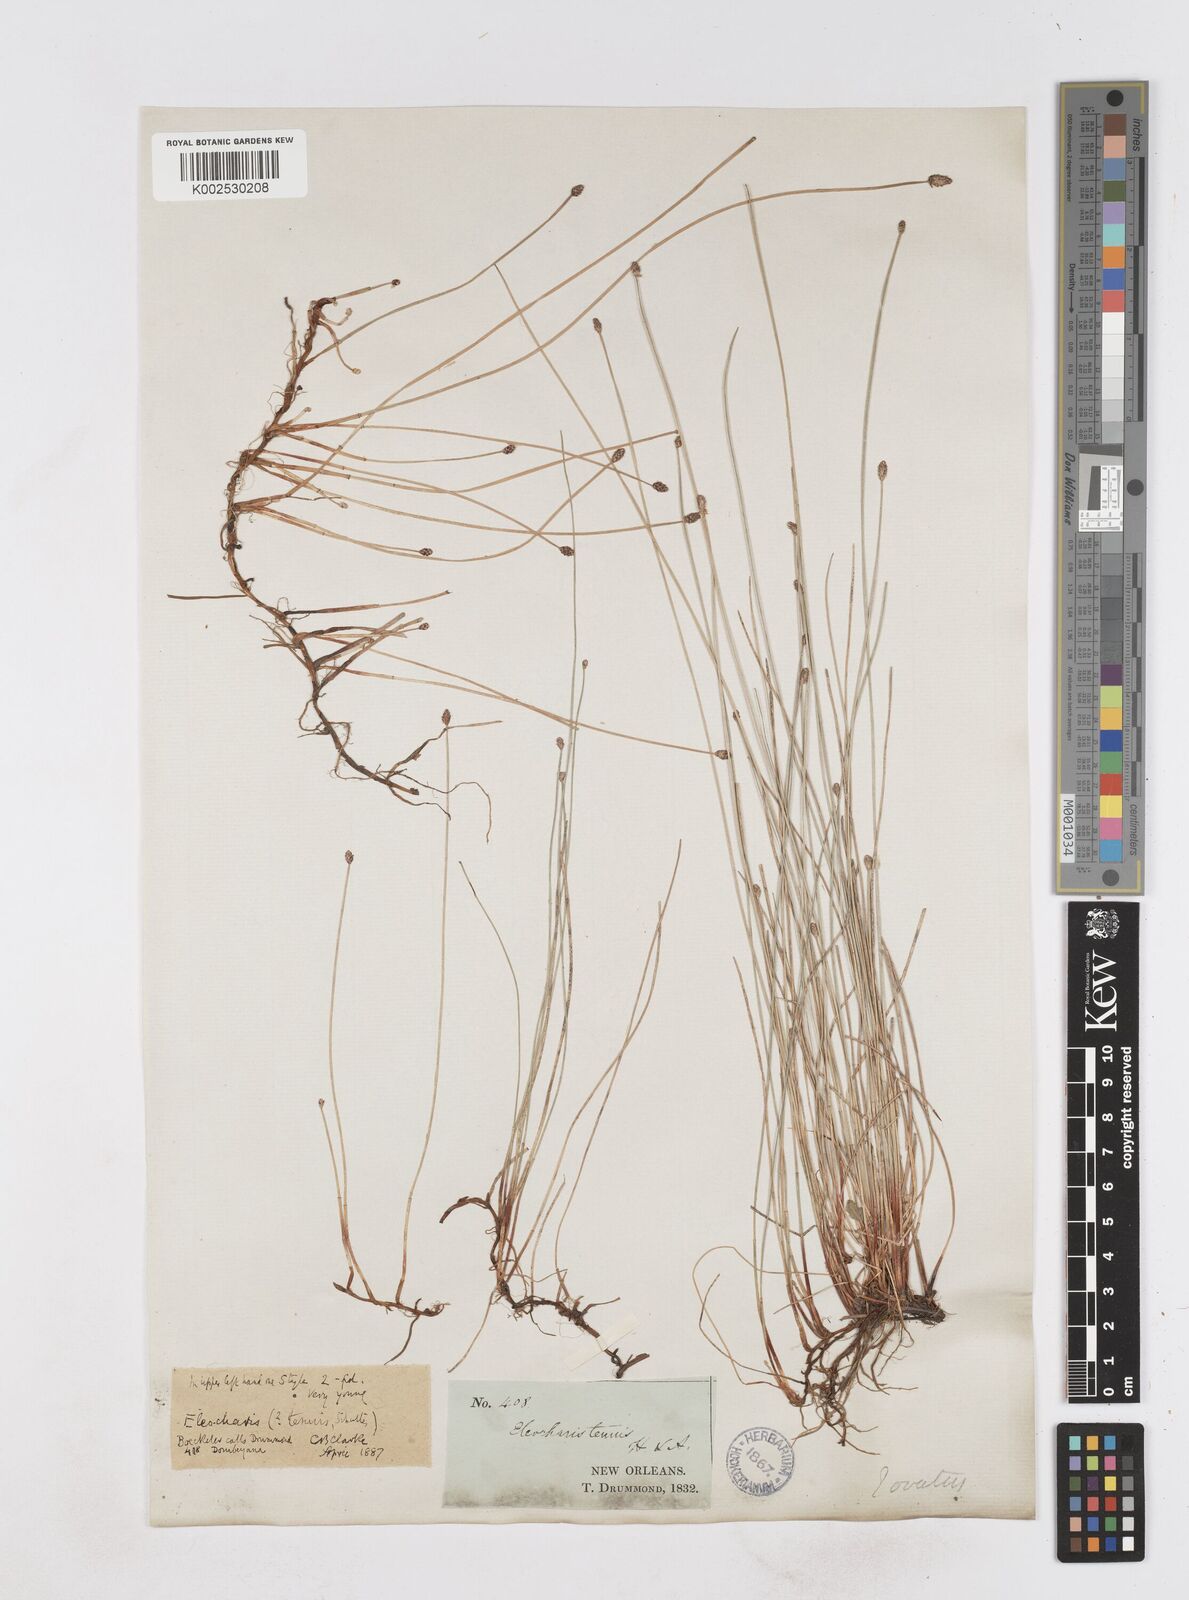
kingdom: Plantae
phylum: Tracheophyta
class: Liliopsida
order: Poales
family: Cyperaceae
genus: Eleocharis
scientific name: Eleocharis tenuis
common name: Dog's hair
